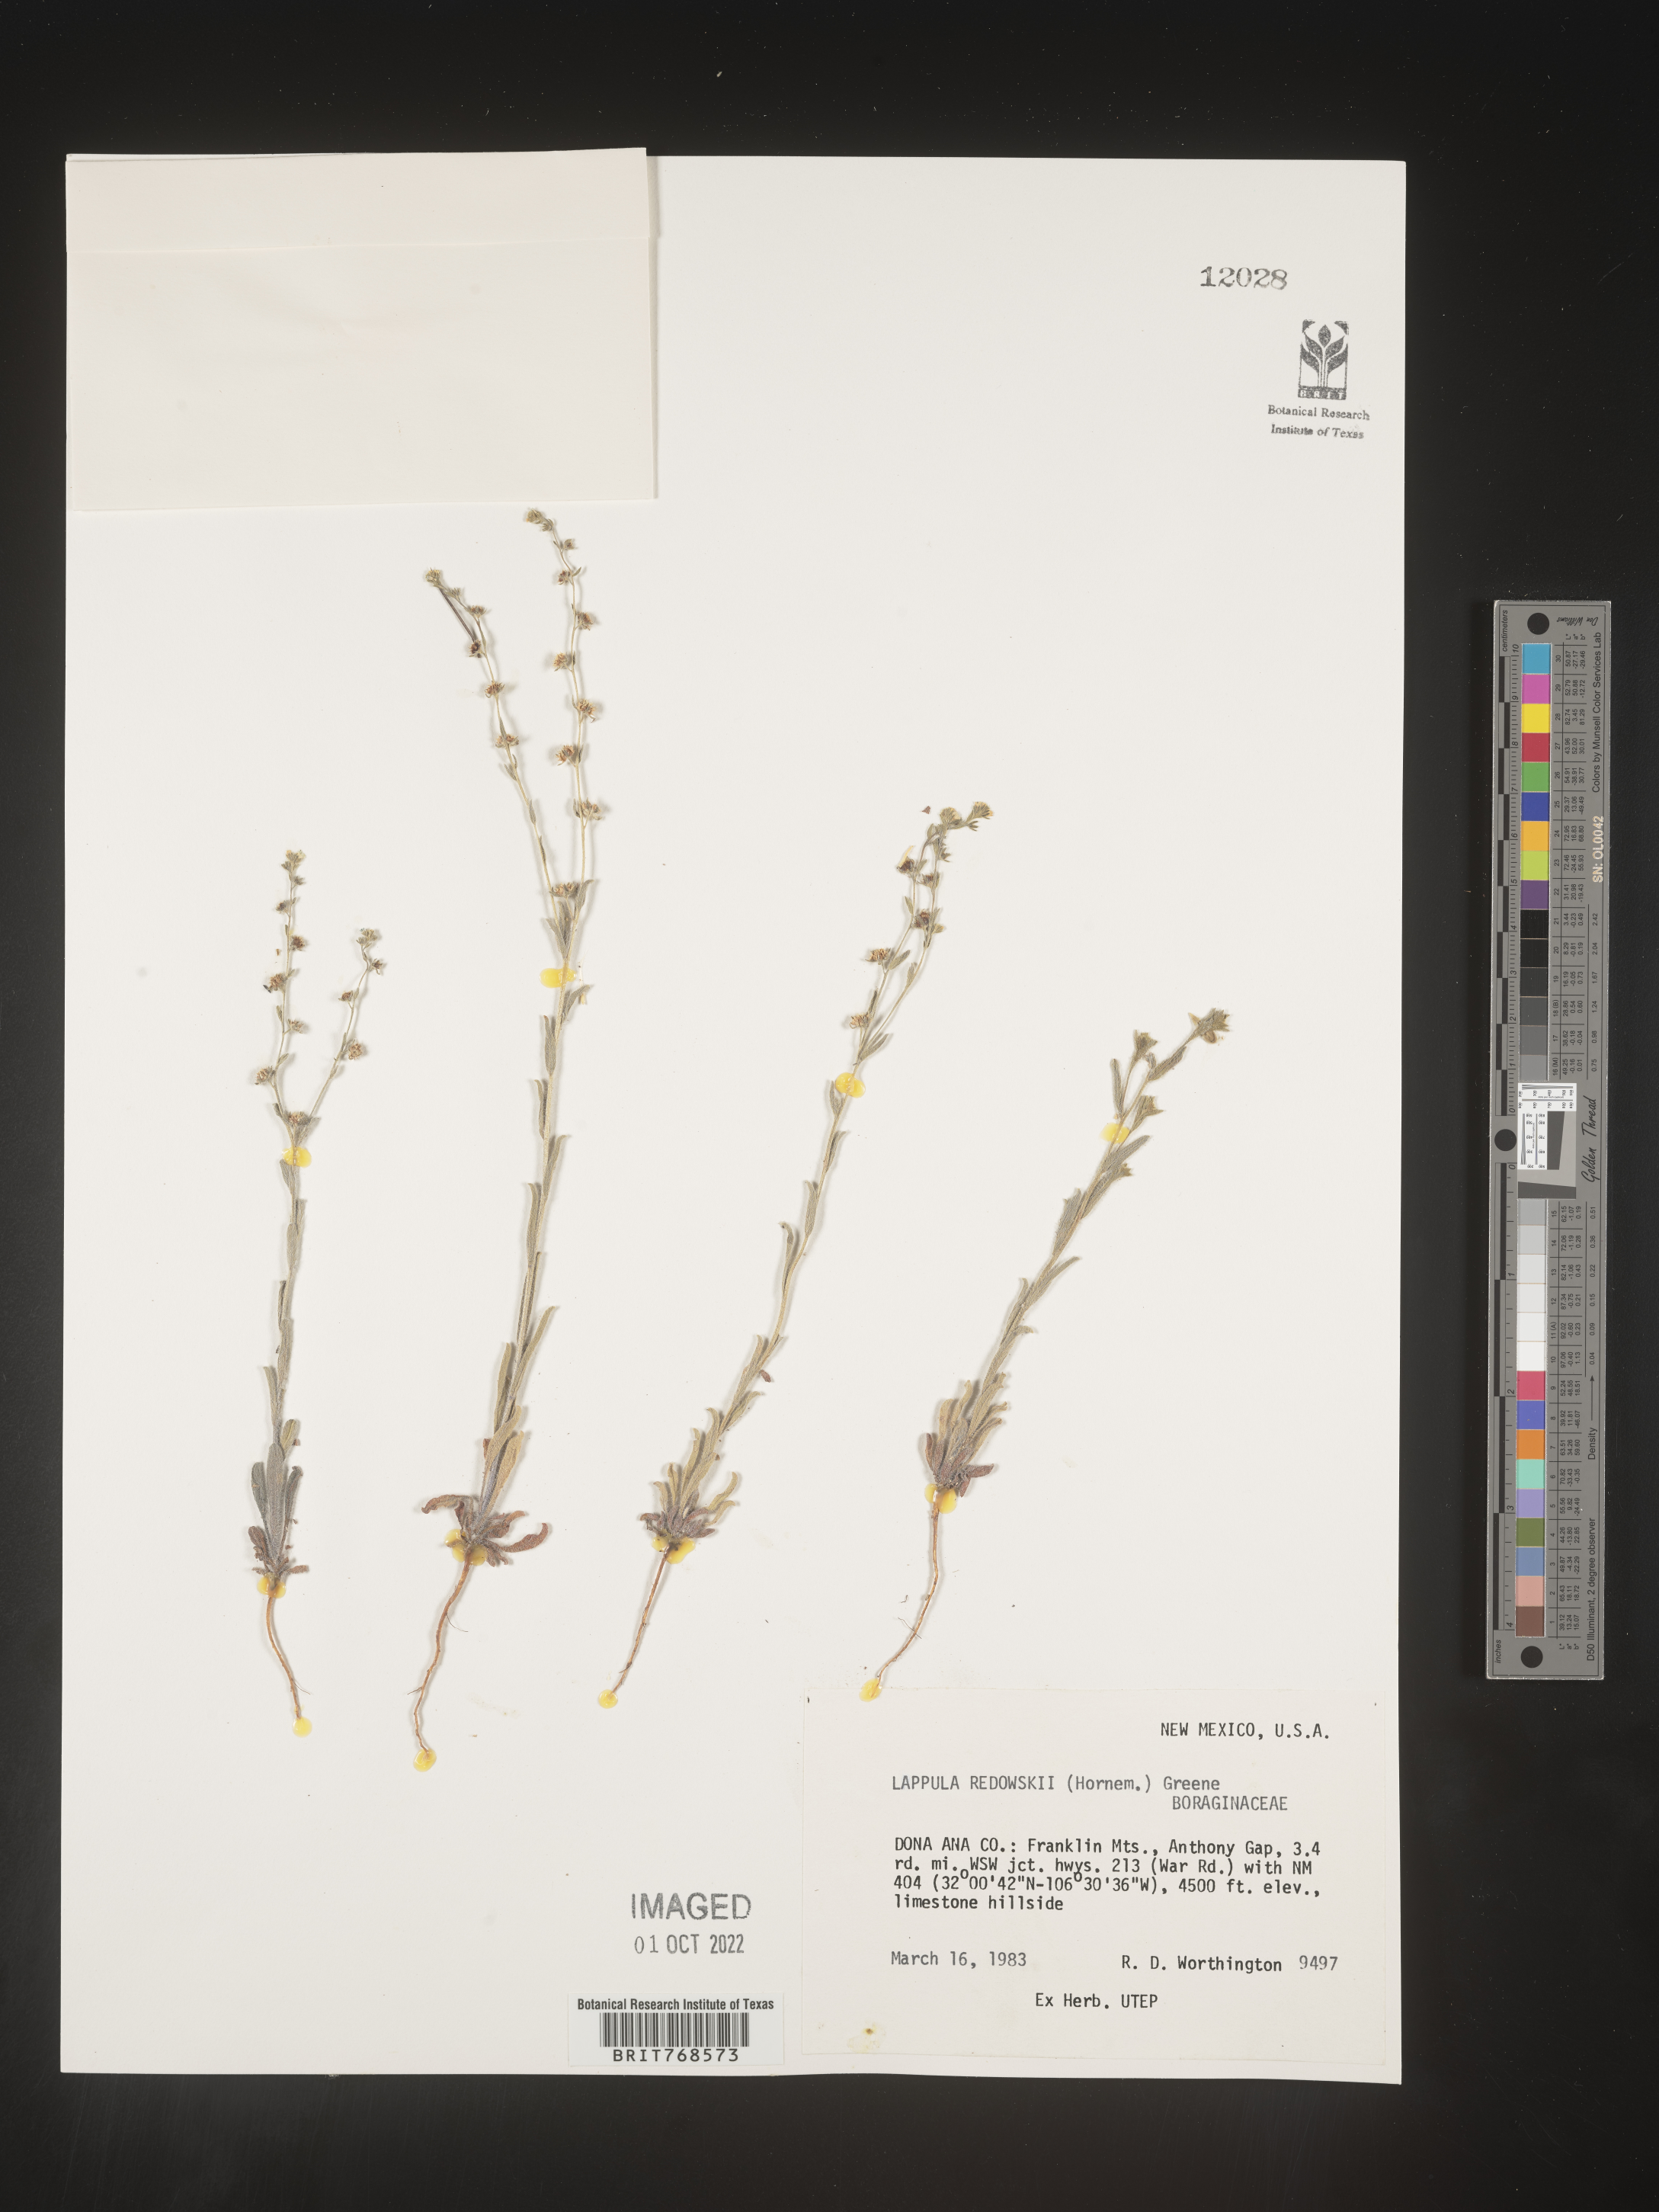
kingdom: Plantae
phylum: Tracheophyta
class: Magnoliopsida
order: Boraginales
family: Boraginaceae
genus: Lappula
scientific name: Lappula redowskii
